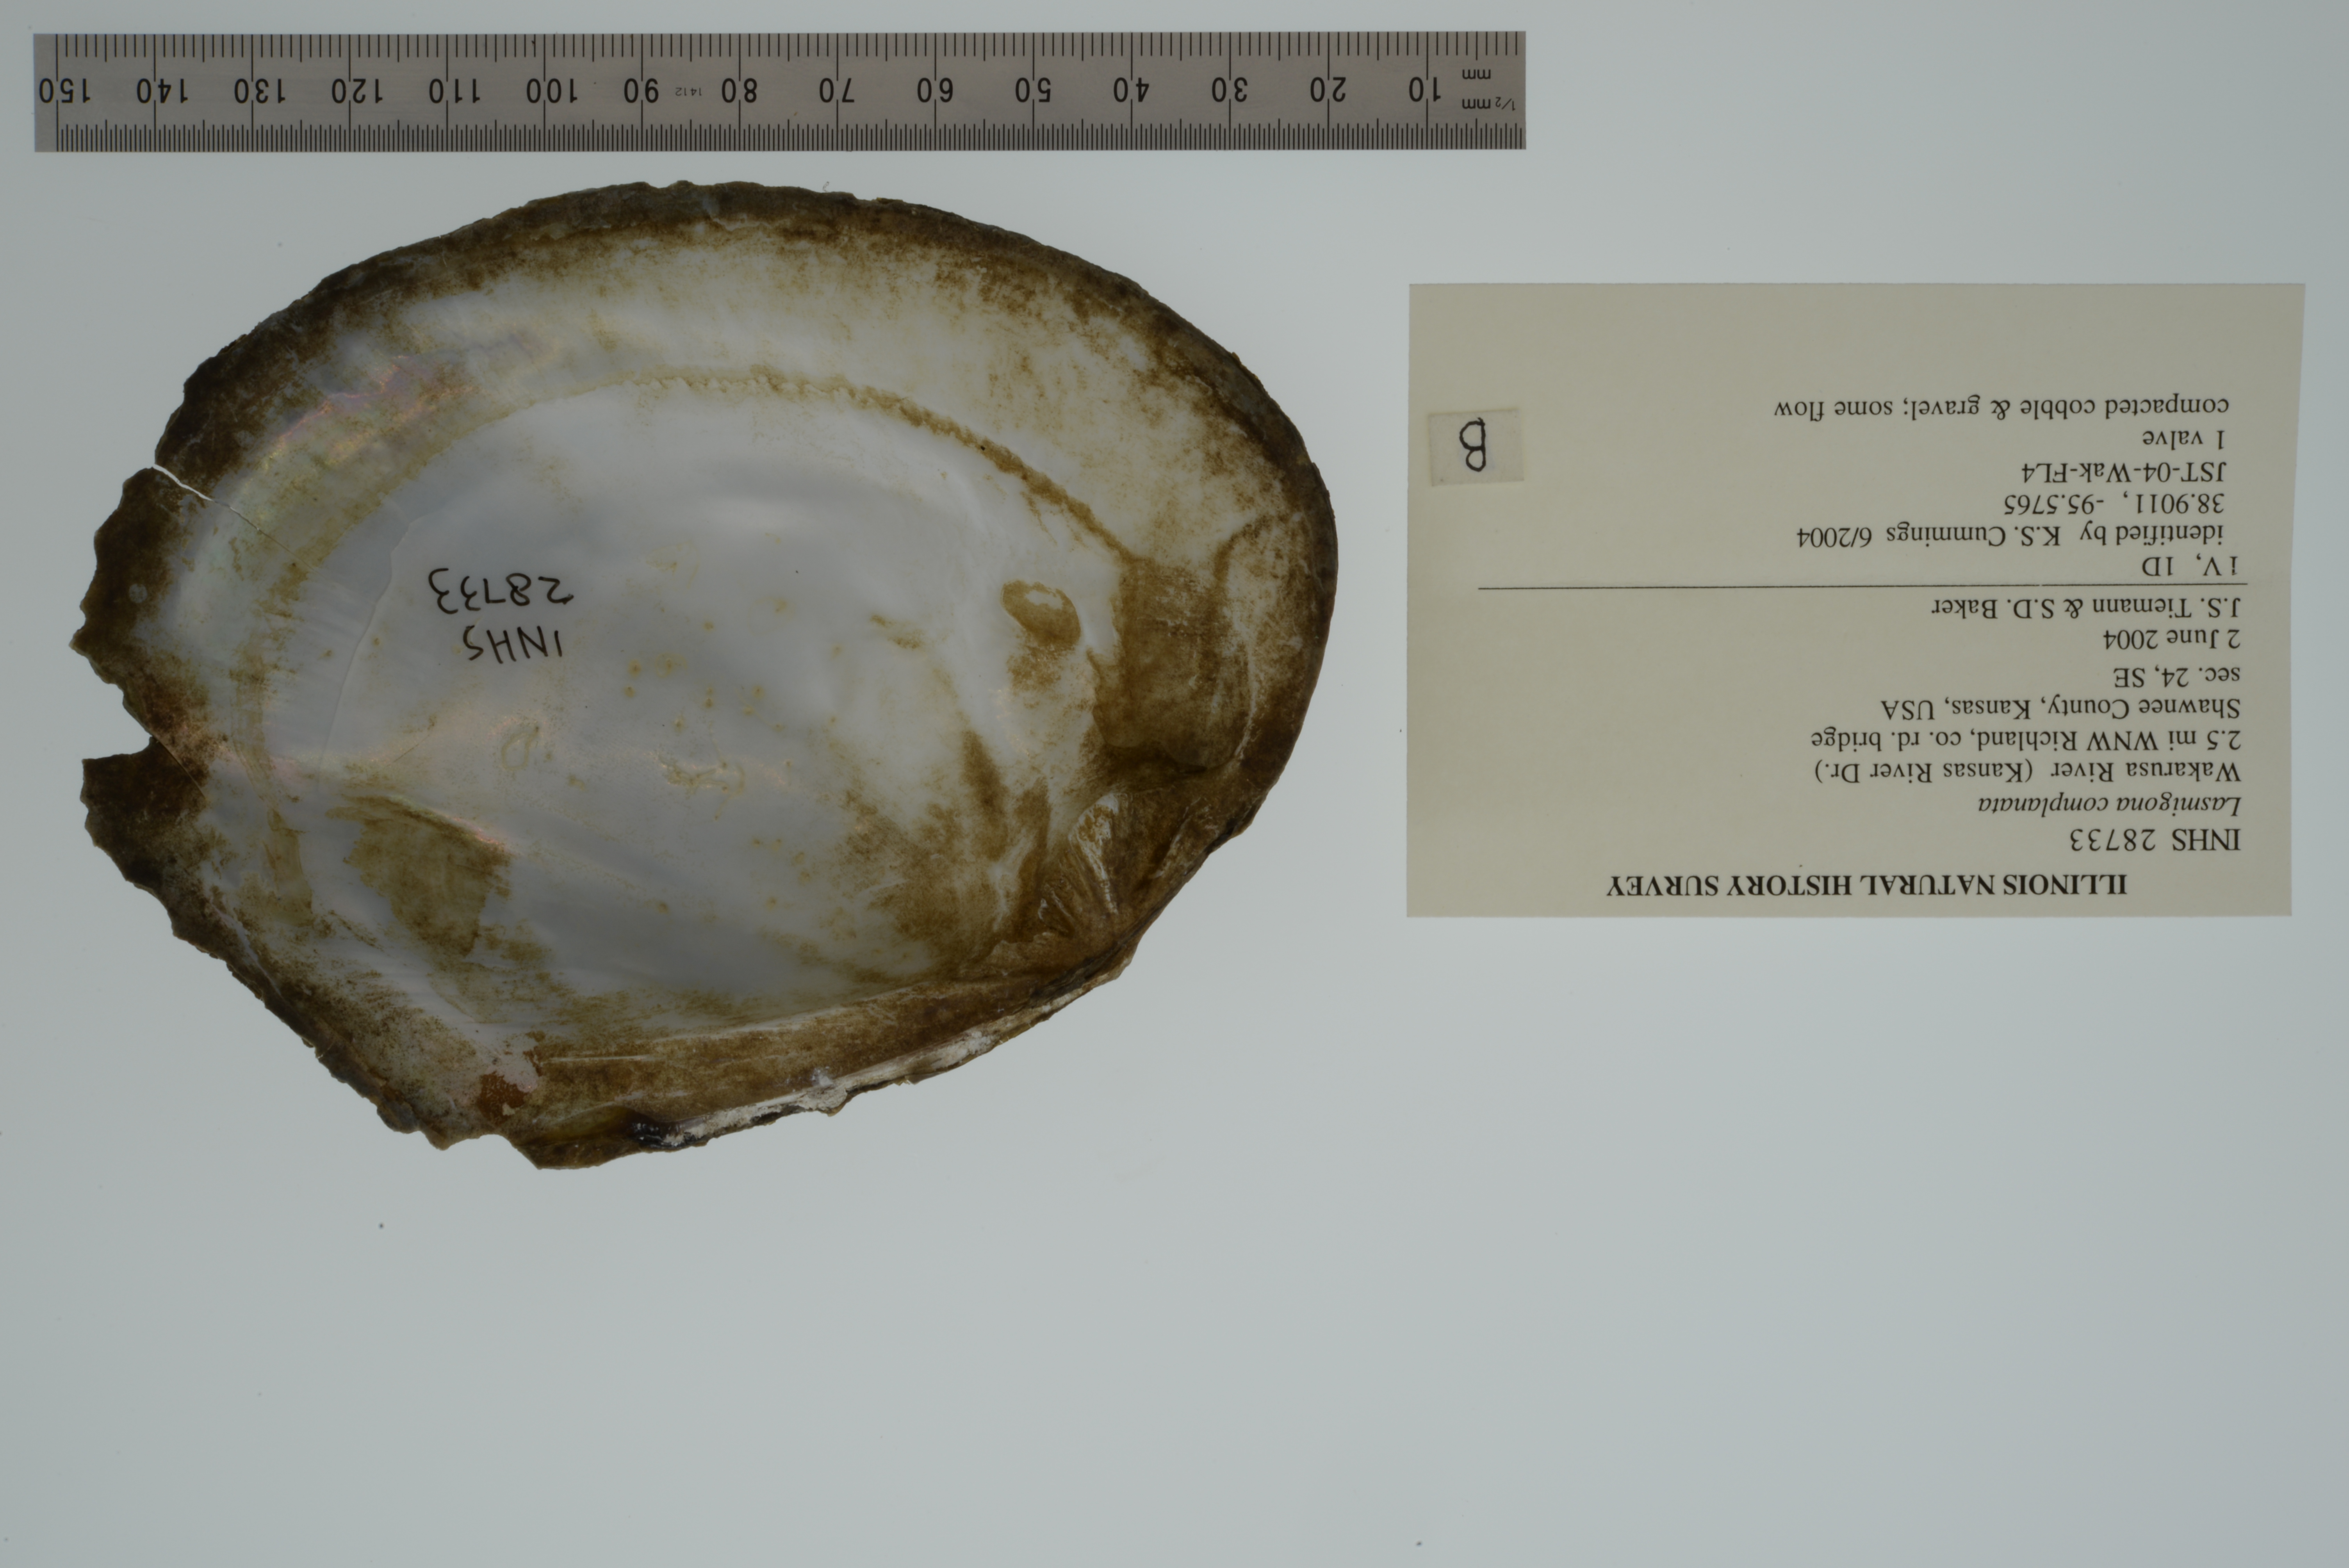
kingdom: Animalia
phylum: Mollusca
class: Bivalvia
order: Unionida
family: Unionidae
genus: Lasmigona
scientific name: Lasmigona complanata
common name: White heelsplitter
